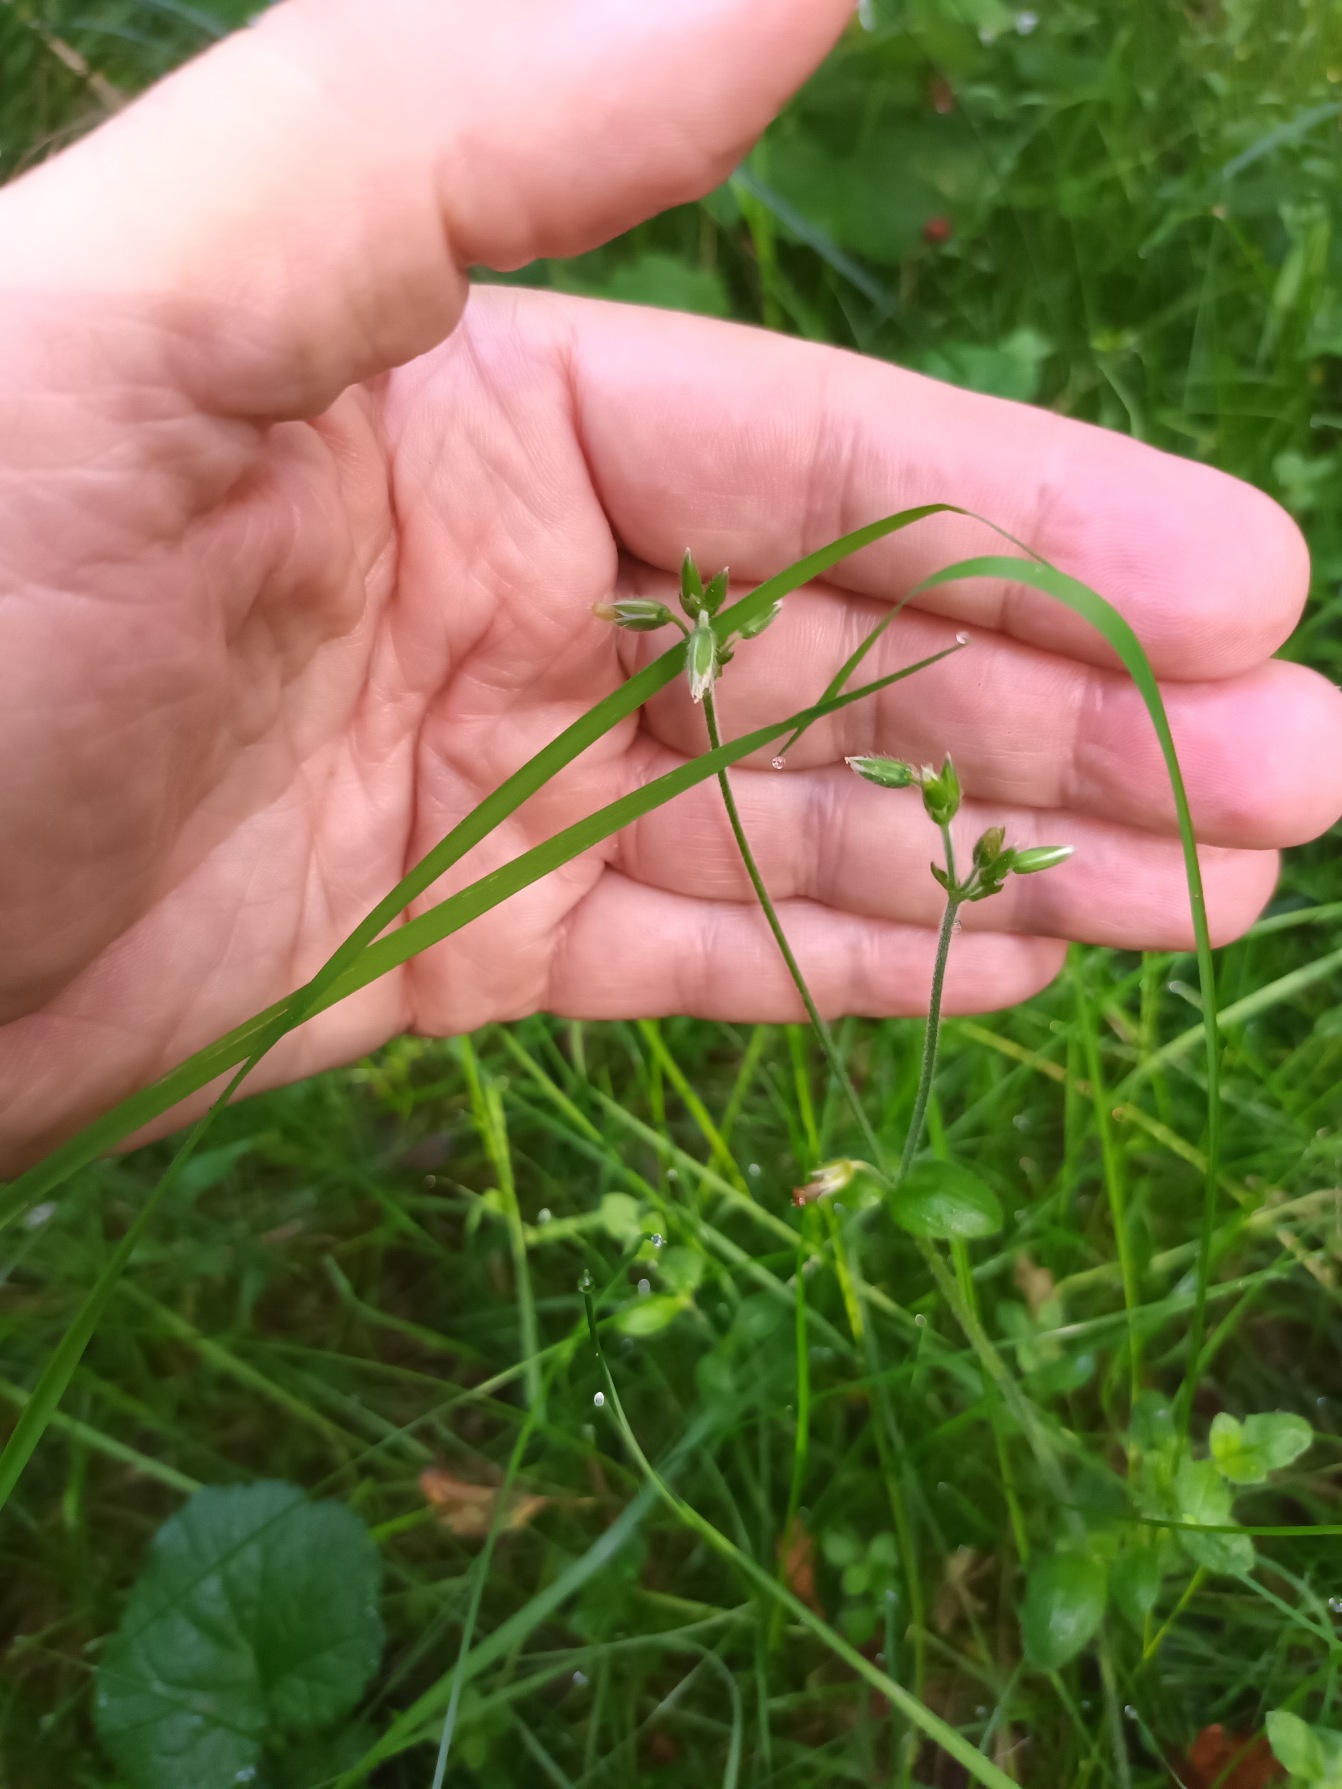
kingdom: Plantae
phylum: Tracheophyta
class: Magnoliopsida
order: Caryophyllales
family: Caryophyllaceae
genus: Cerastium
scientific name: Cerastium fontanum
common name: Almindelig hønsetarm
